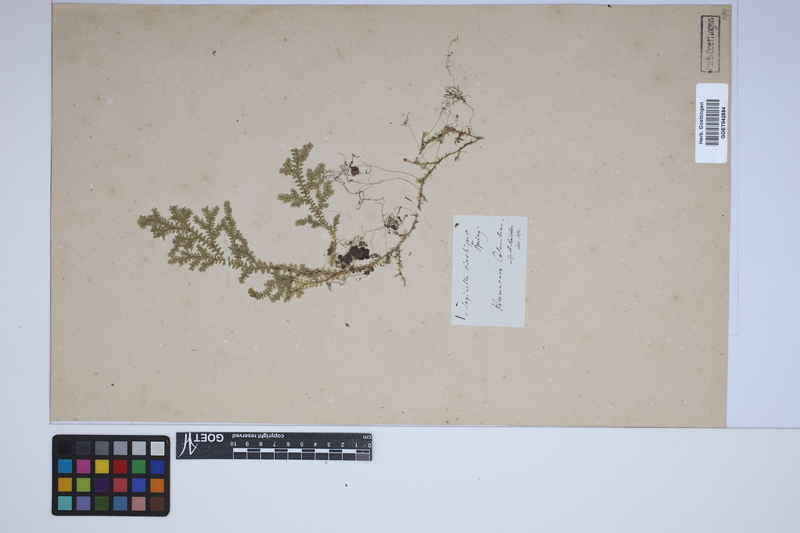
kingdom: Plantae
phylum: Tracheophyta
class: Lycopodiopsida
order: Selaginellales
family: Selaginellaceae
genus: Selaginella
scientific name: Selaginella diffusa
